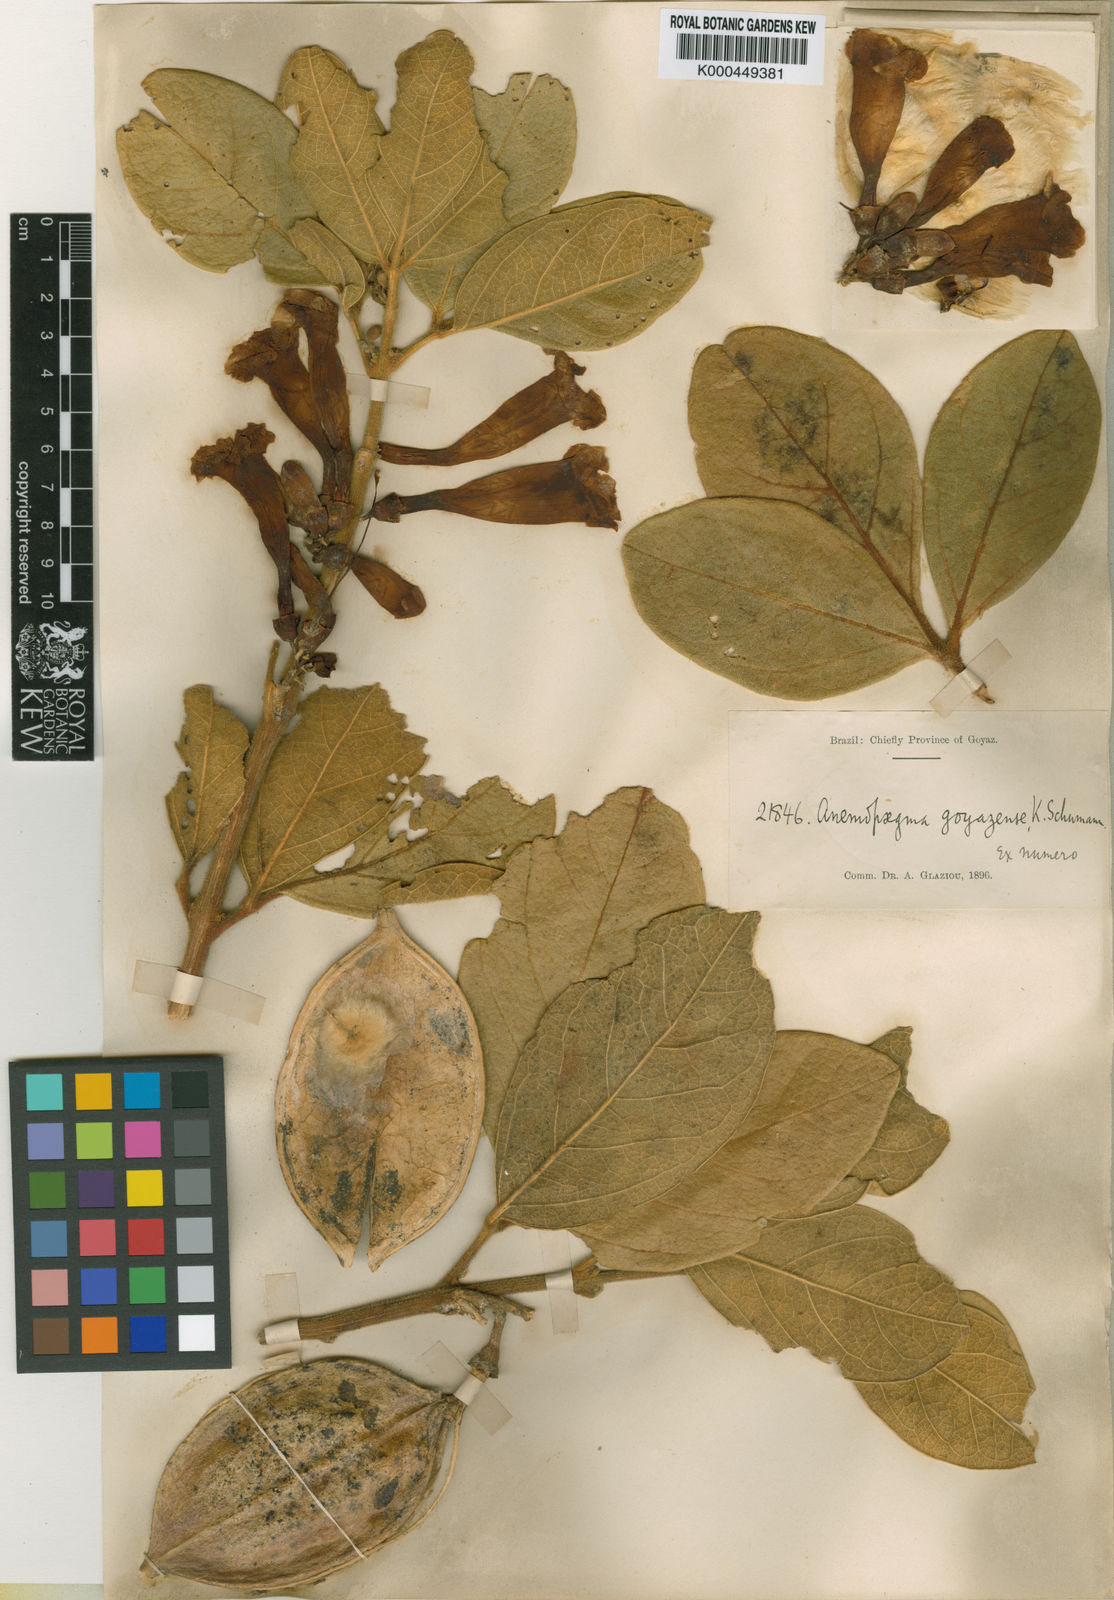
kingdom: Plantae
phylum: Tracheophyta
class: Magnoliopsida
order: Lamiales
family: Bignoniaceae
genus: Anemopaegma
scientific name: Anemopaegma goyazense
